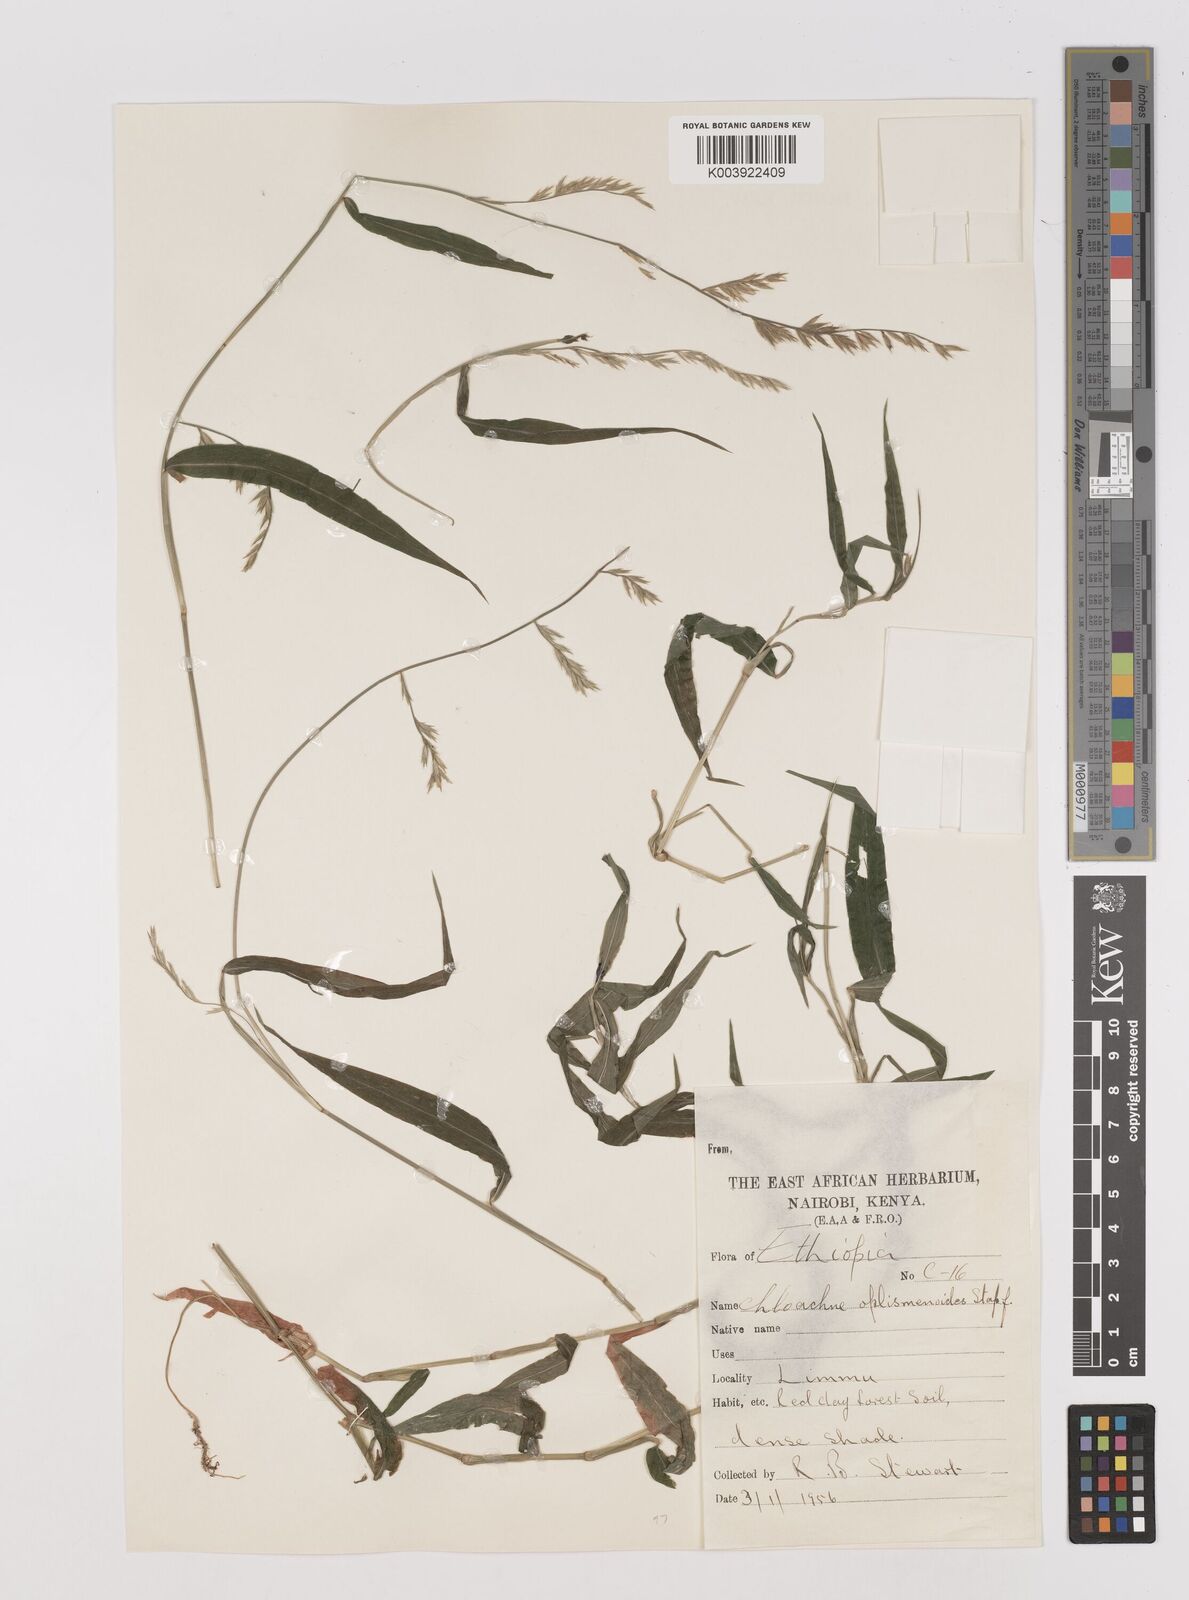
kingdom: Plantae
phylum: Tracheophyta
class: Liliopsida
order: Poales
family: Poaceae
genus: Poecilostachys
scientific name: Poecilostachys oplismenoides
